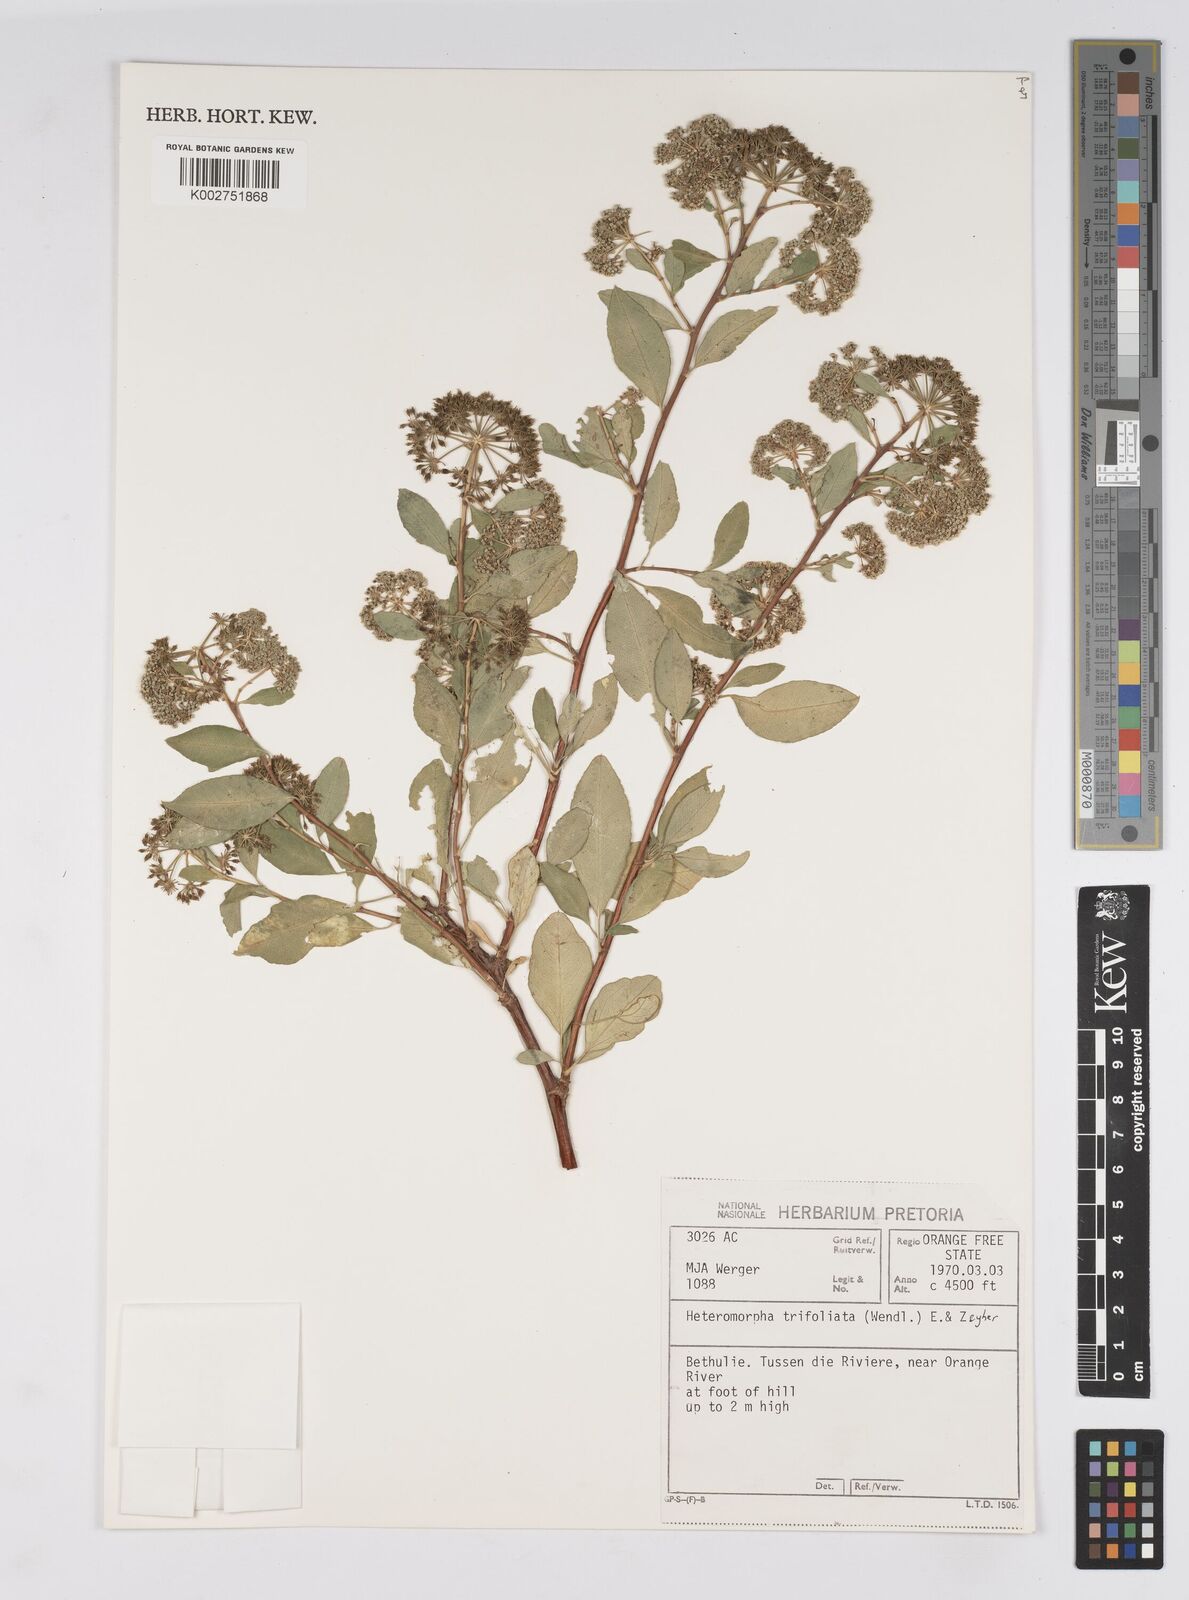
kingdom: Plantae
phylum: Tracheophyta
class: Magnoliopsida
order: Apiales
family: Apiaceae
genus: Heteromorpha
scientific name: Heteromorpha arborescens
